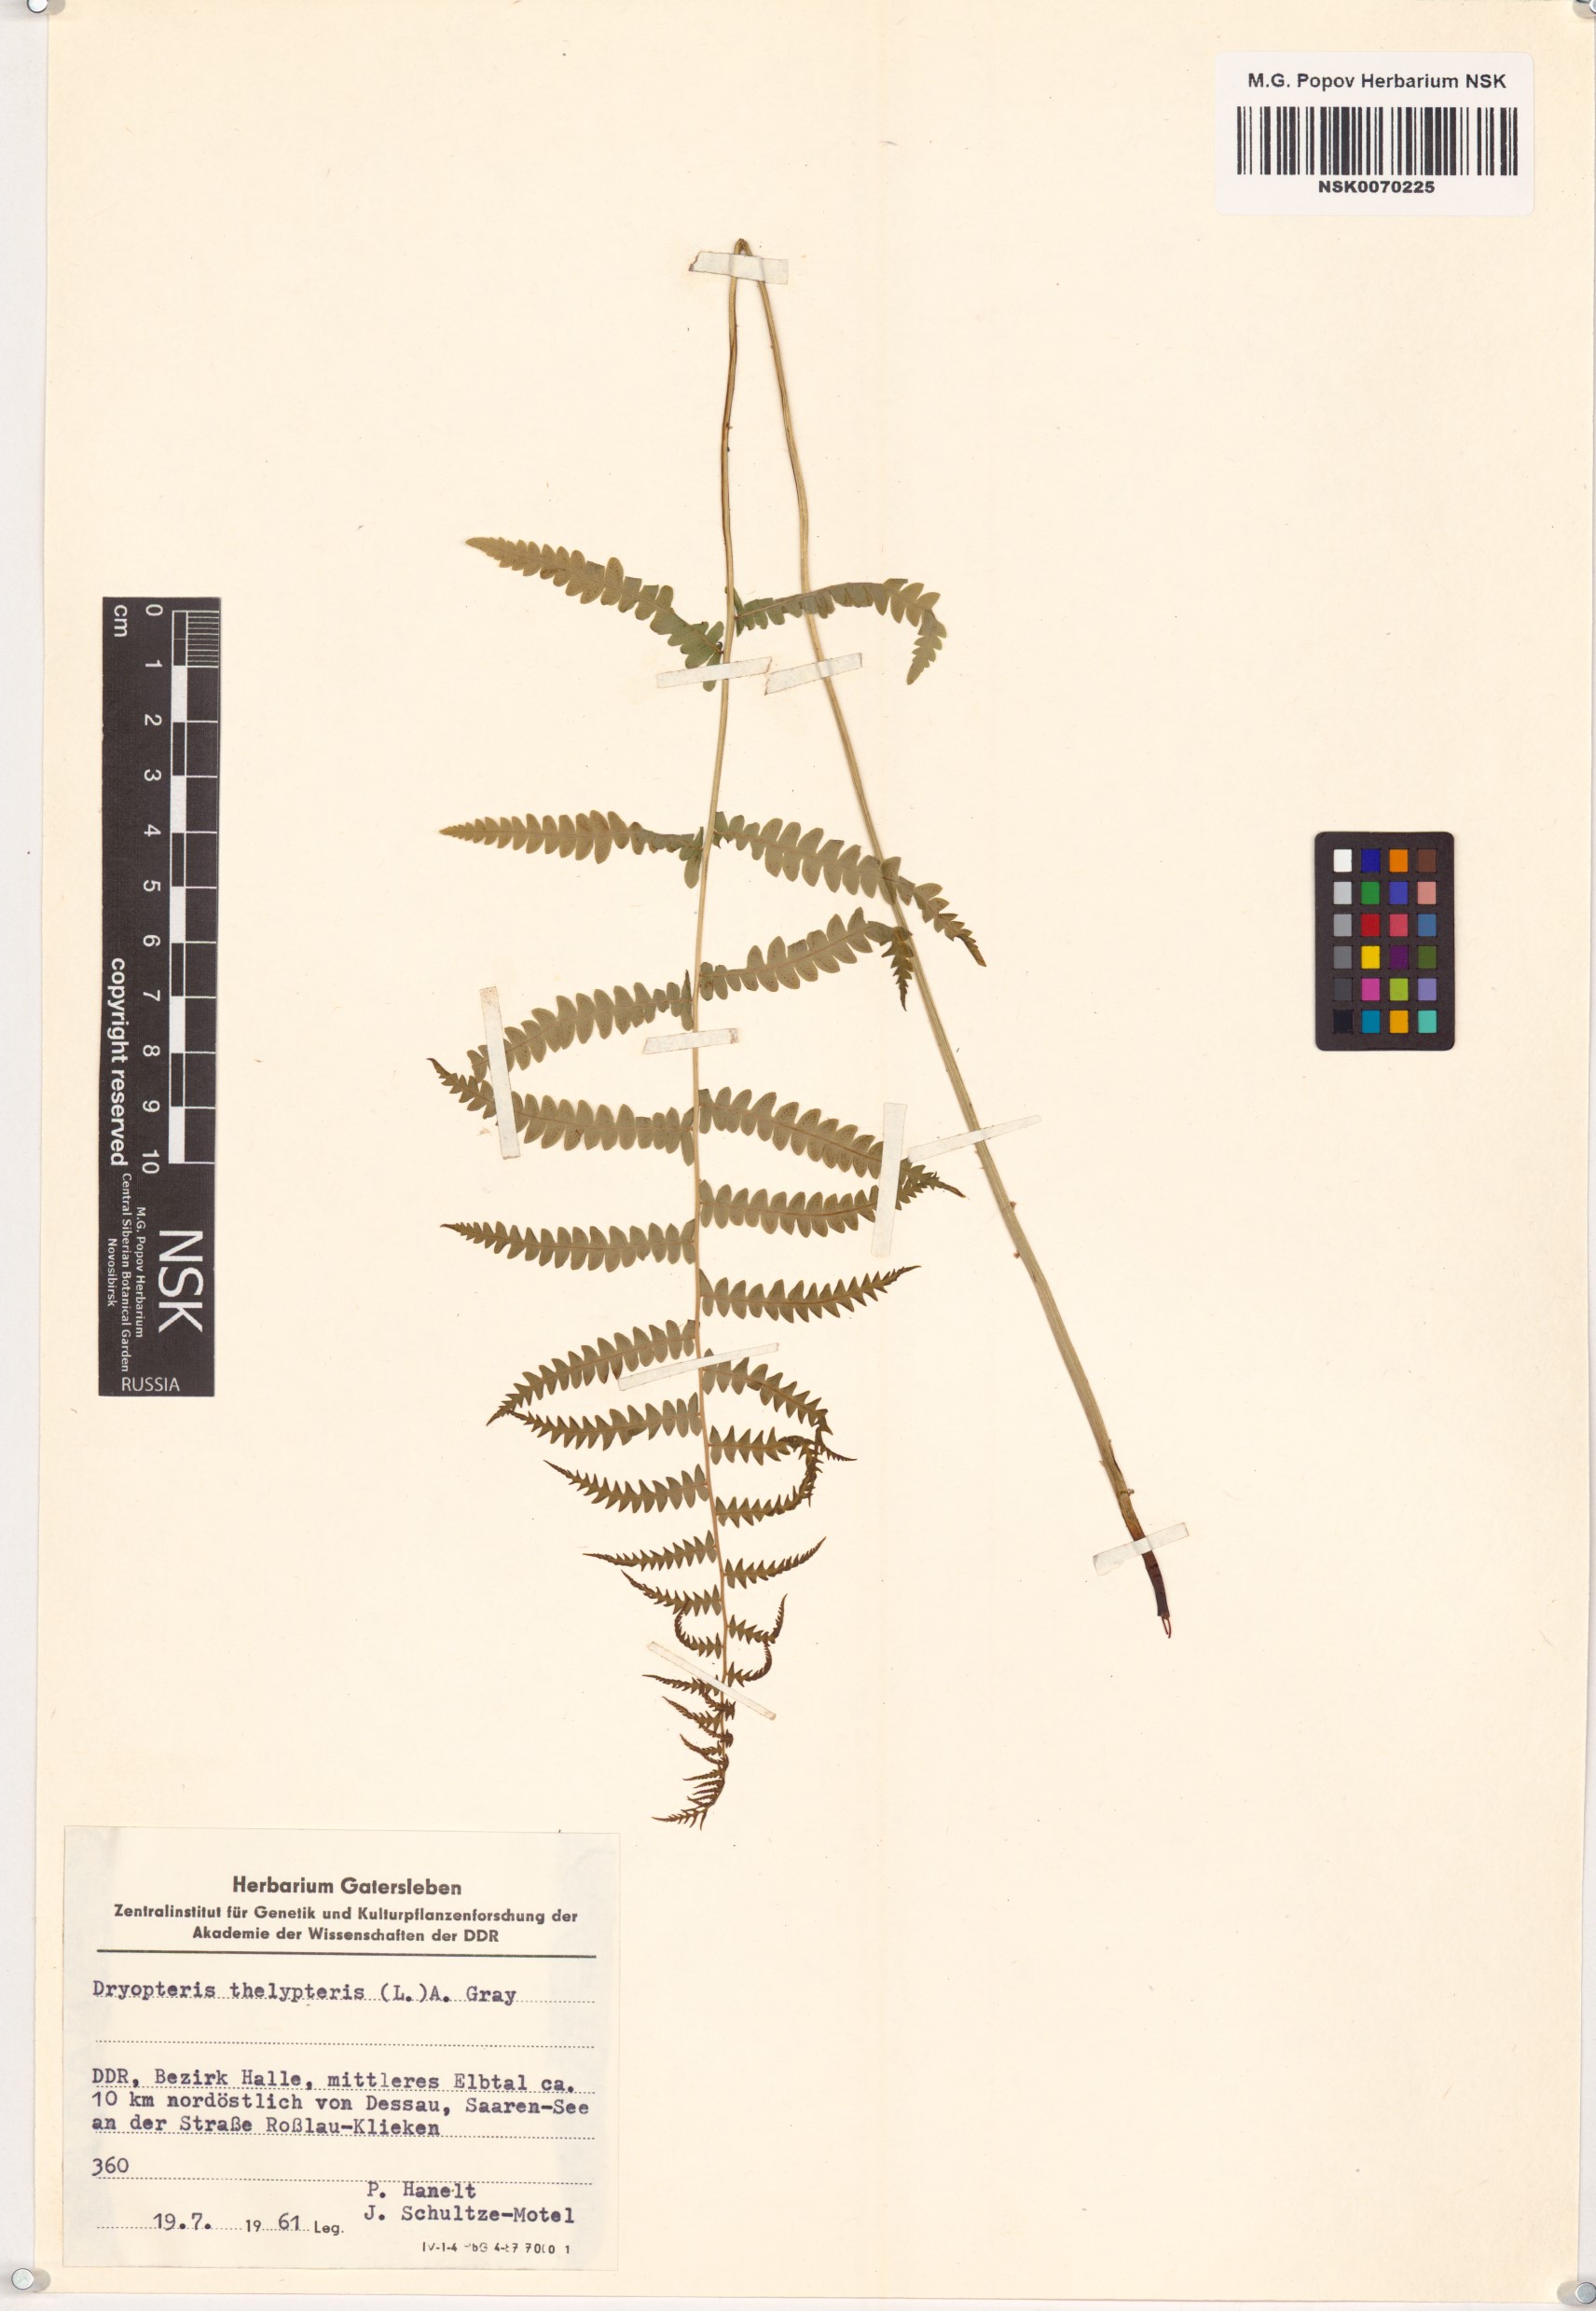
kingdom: Plantae
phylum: Tracheophyta
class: Polypodiopsida
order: Polypodiales
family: Thelypteridaceae
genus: Thelypteris
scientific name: Thelypteris palustris
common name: Marsh fern
